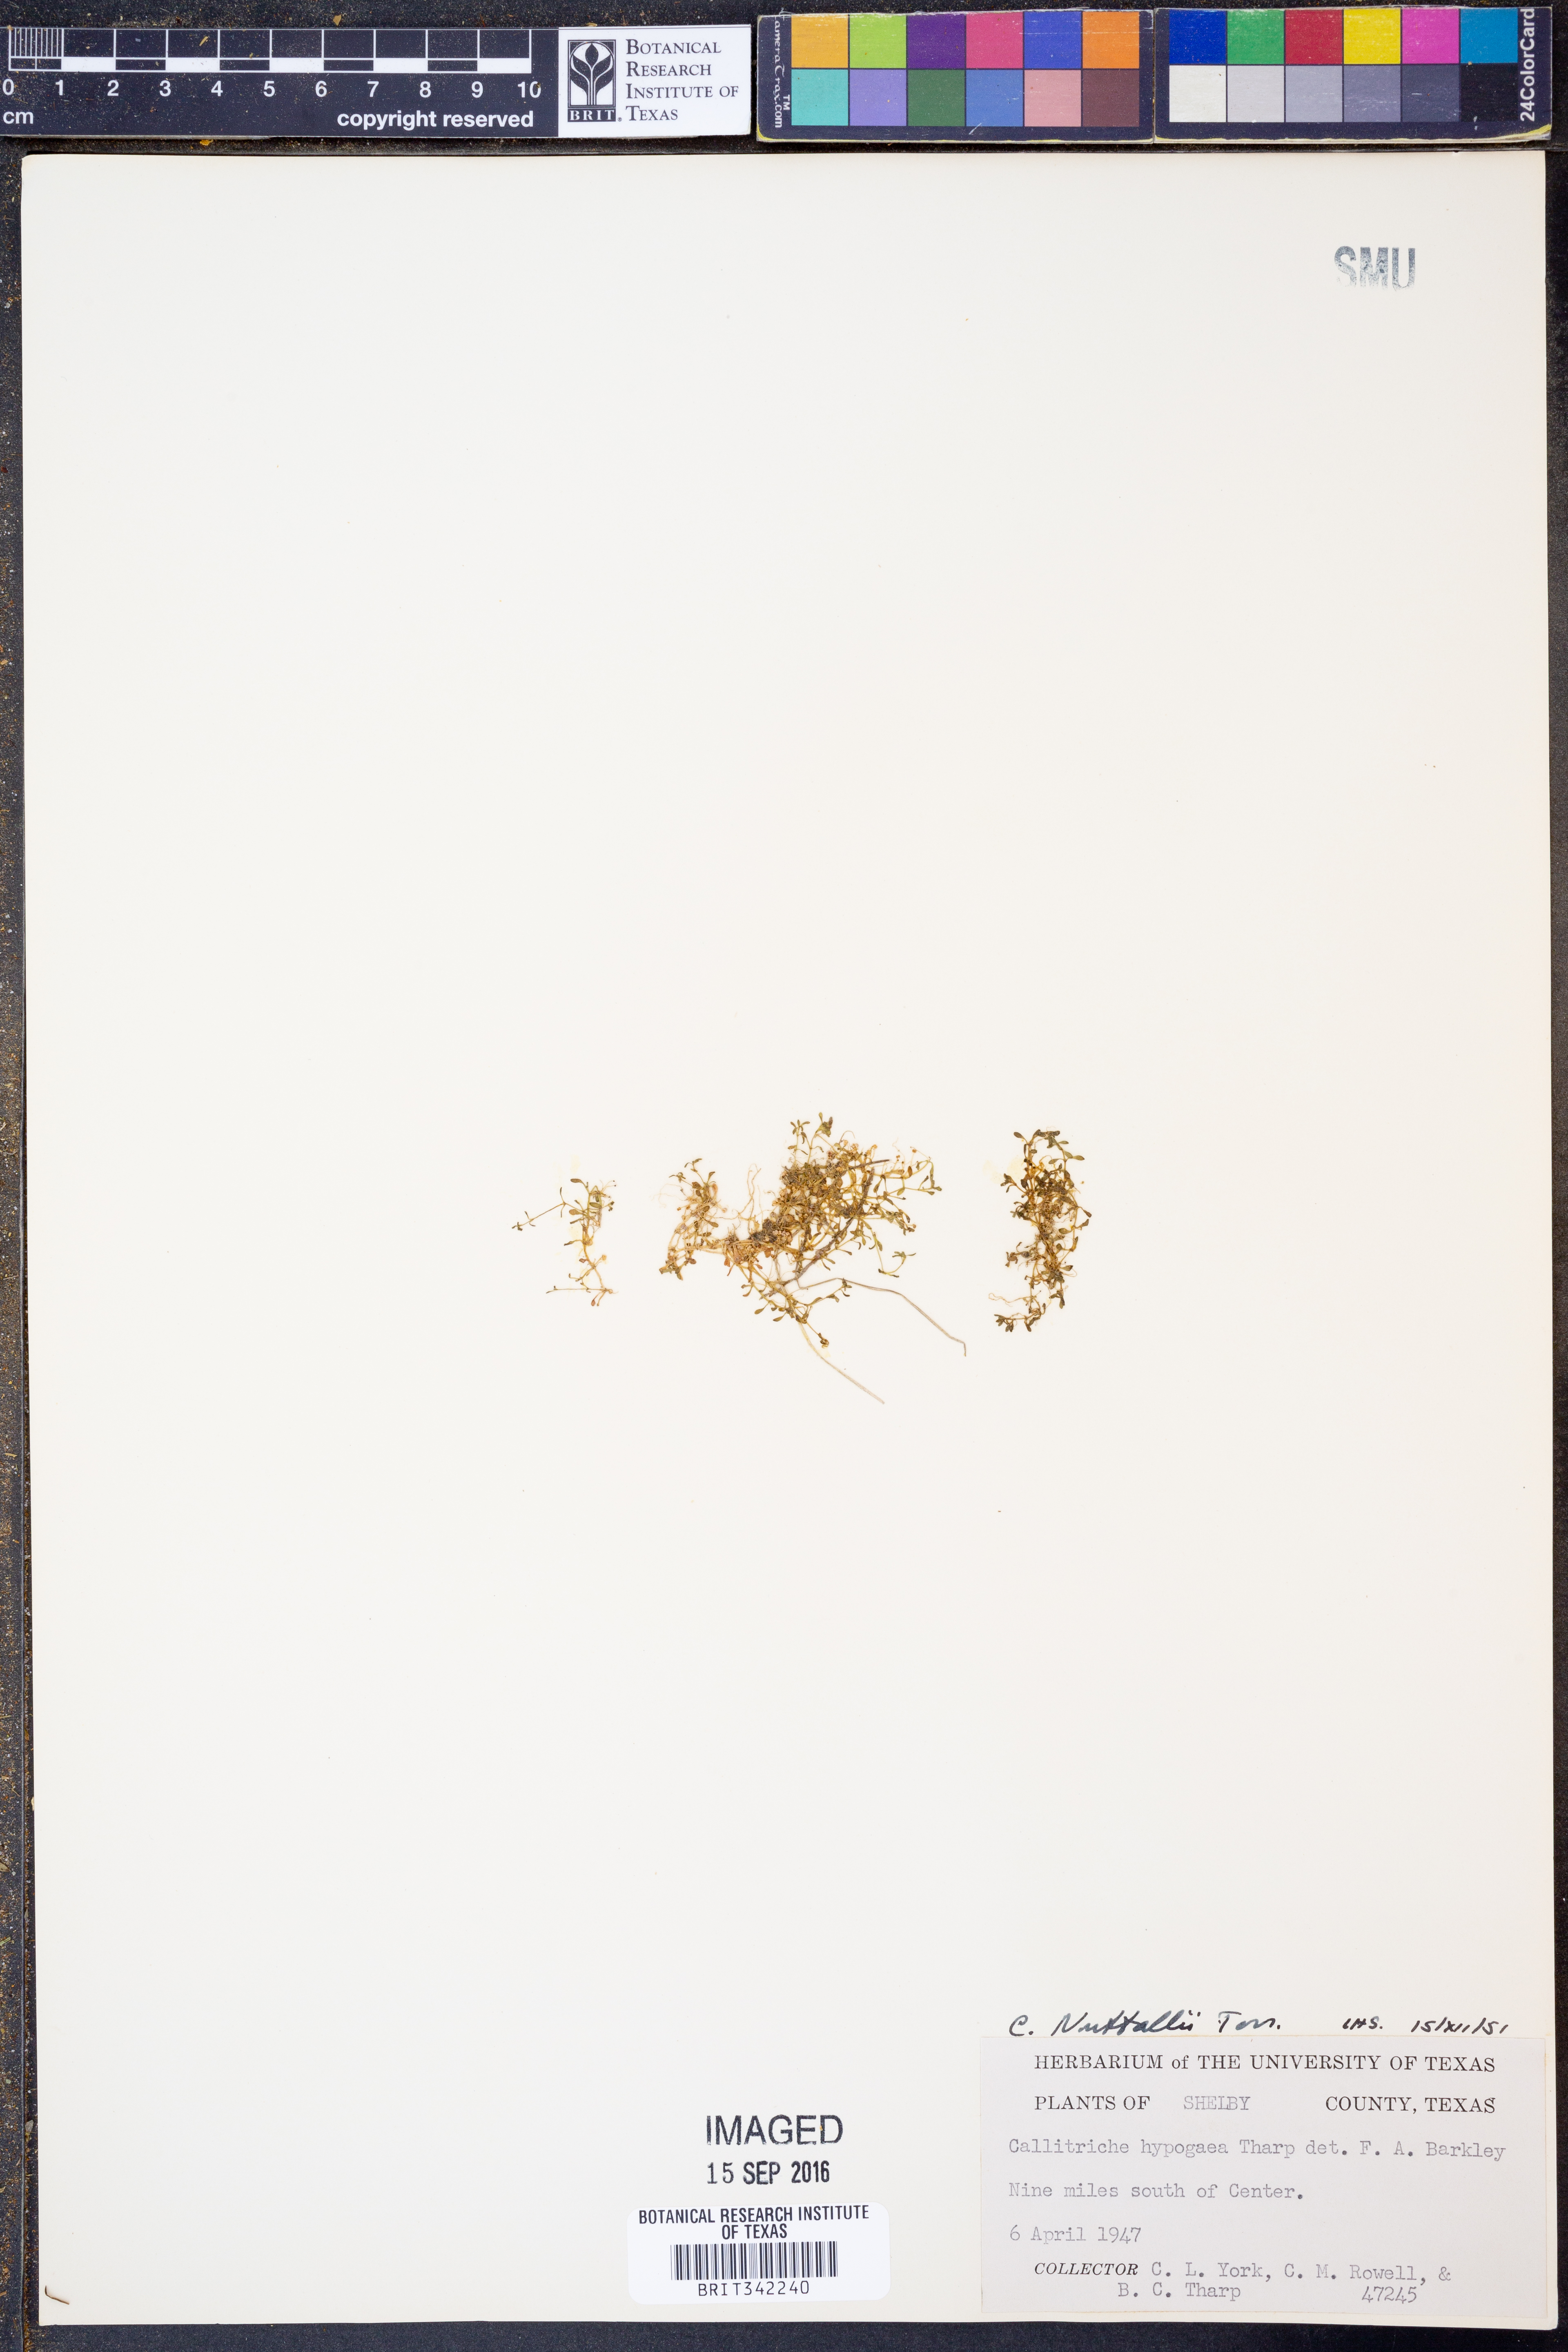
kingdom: Plantae
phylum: Tracheophyta
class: Magnoliopsida
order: Lamiales
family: Plantaginaceae
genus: Callitriche
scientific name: Callitriche pedunculosa
